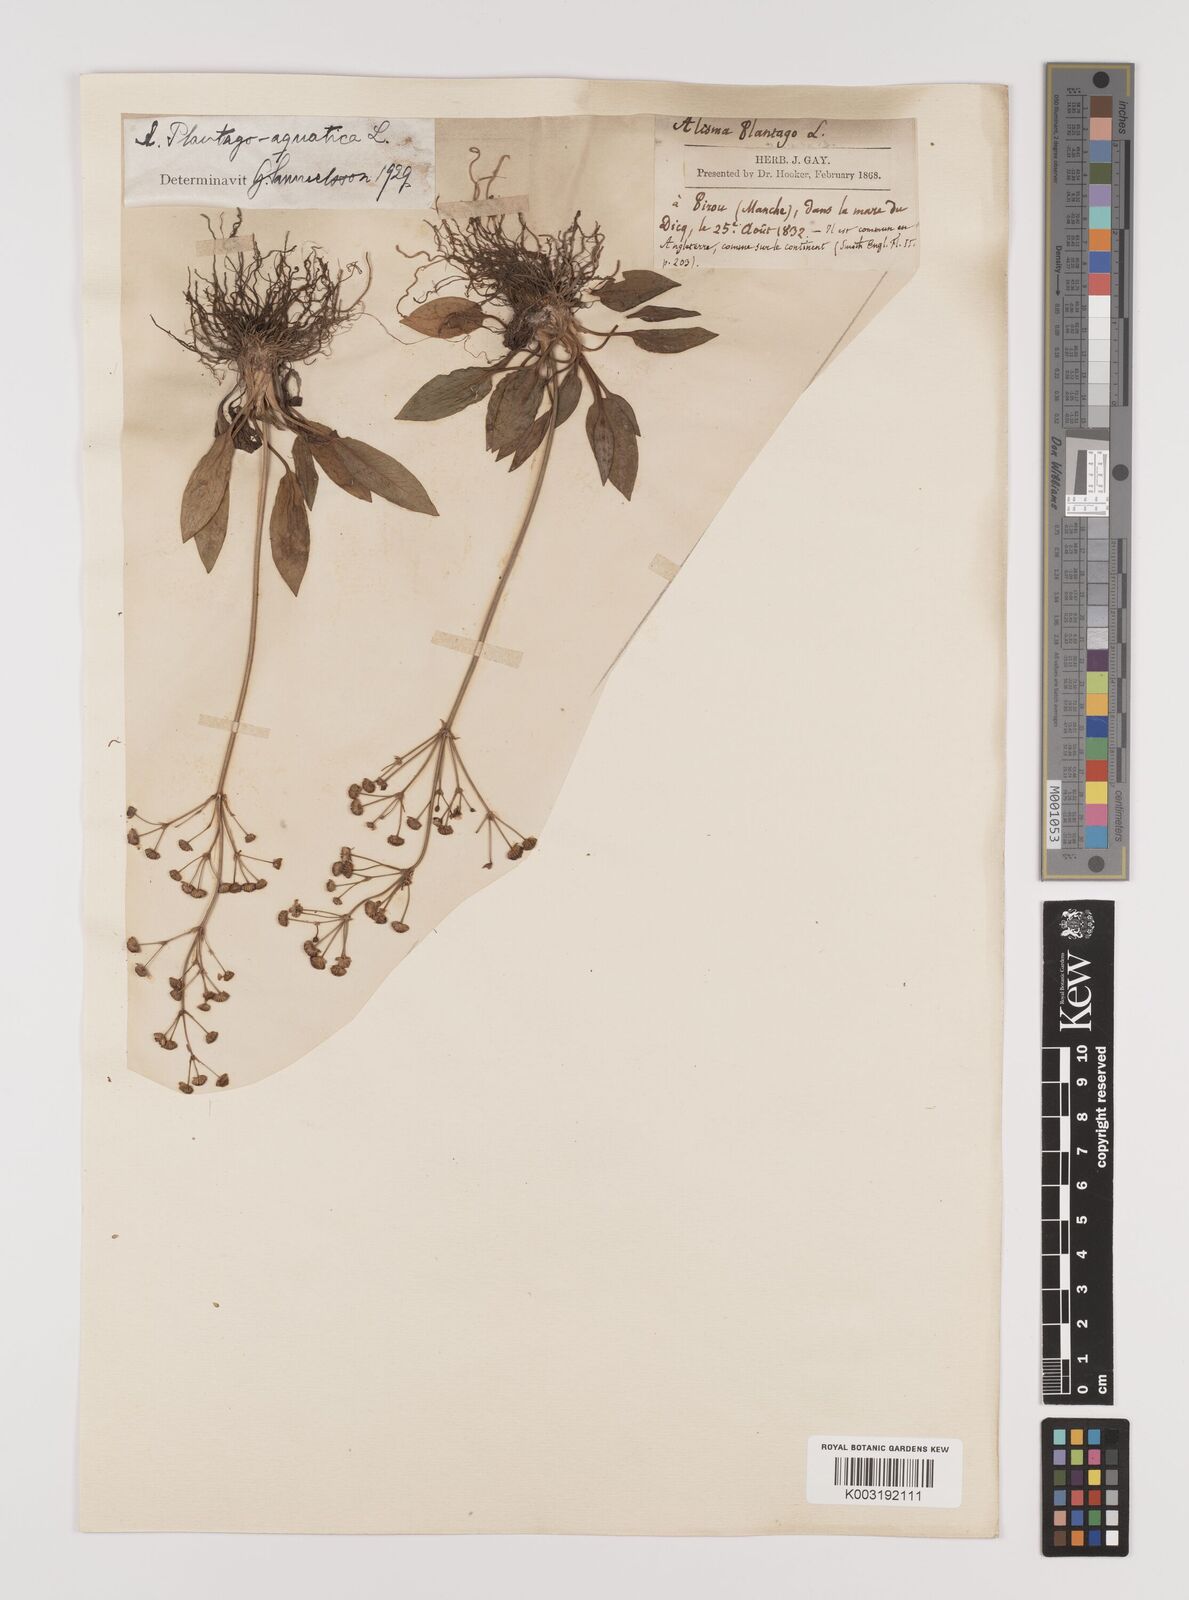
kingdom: Plantae
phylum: Tracheophyta
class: Liliopsida
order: Alismatales
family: Alismataceae
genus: Alisma
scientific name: Alisma plantago-aquatica
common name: Water-plantain
